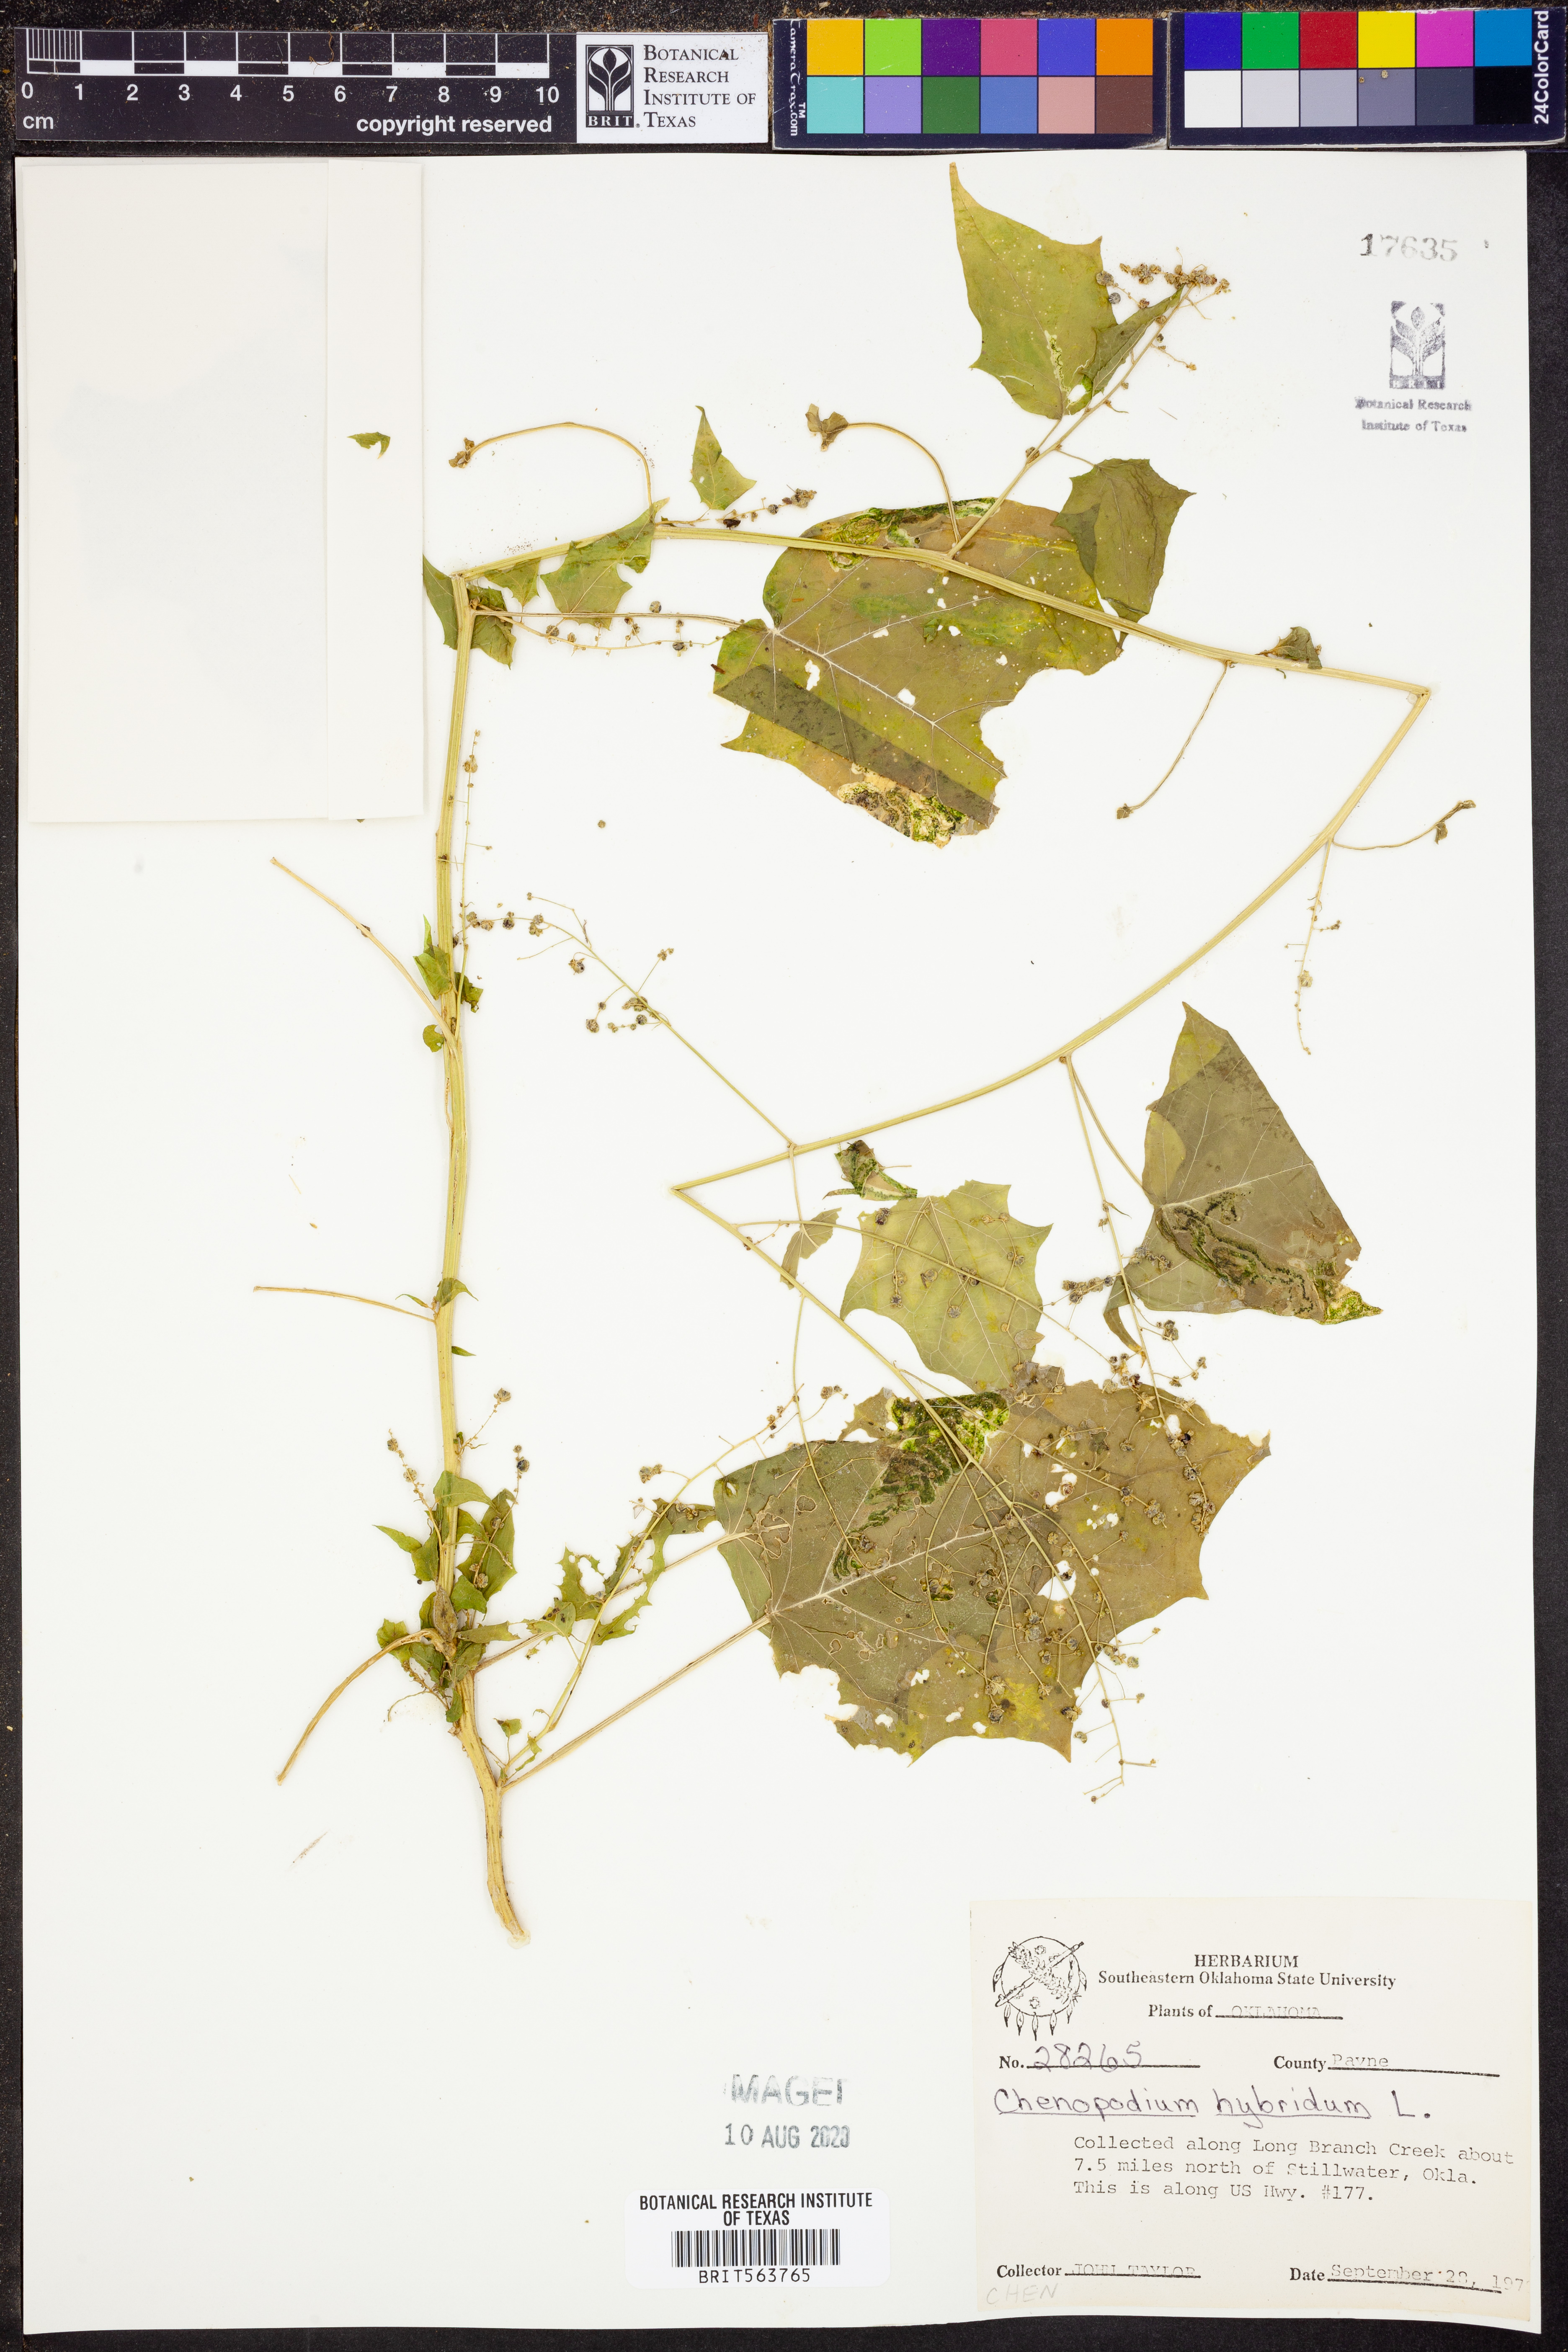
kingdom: Plantae
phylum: Tracheophyta
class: Magnoliopsida
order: Caryophyllales
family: Amaranthaceae
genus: Chenopodiastrum
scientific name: Chenopodiastrum hybridum
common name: Mapleleaf goosefoot
